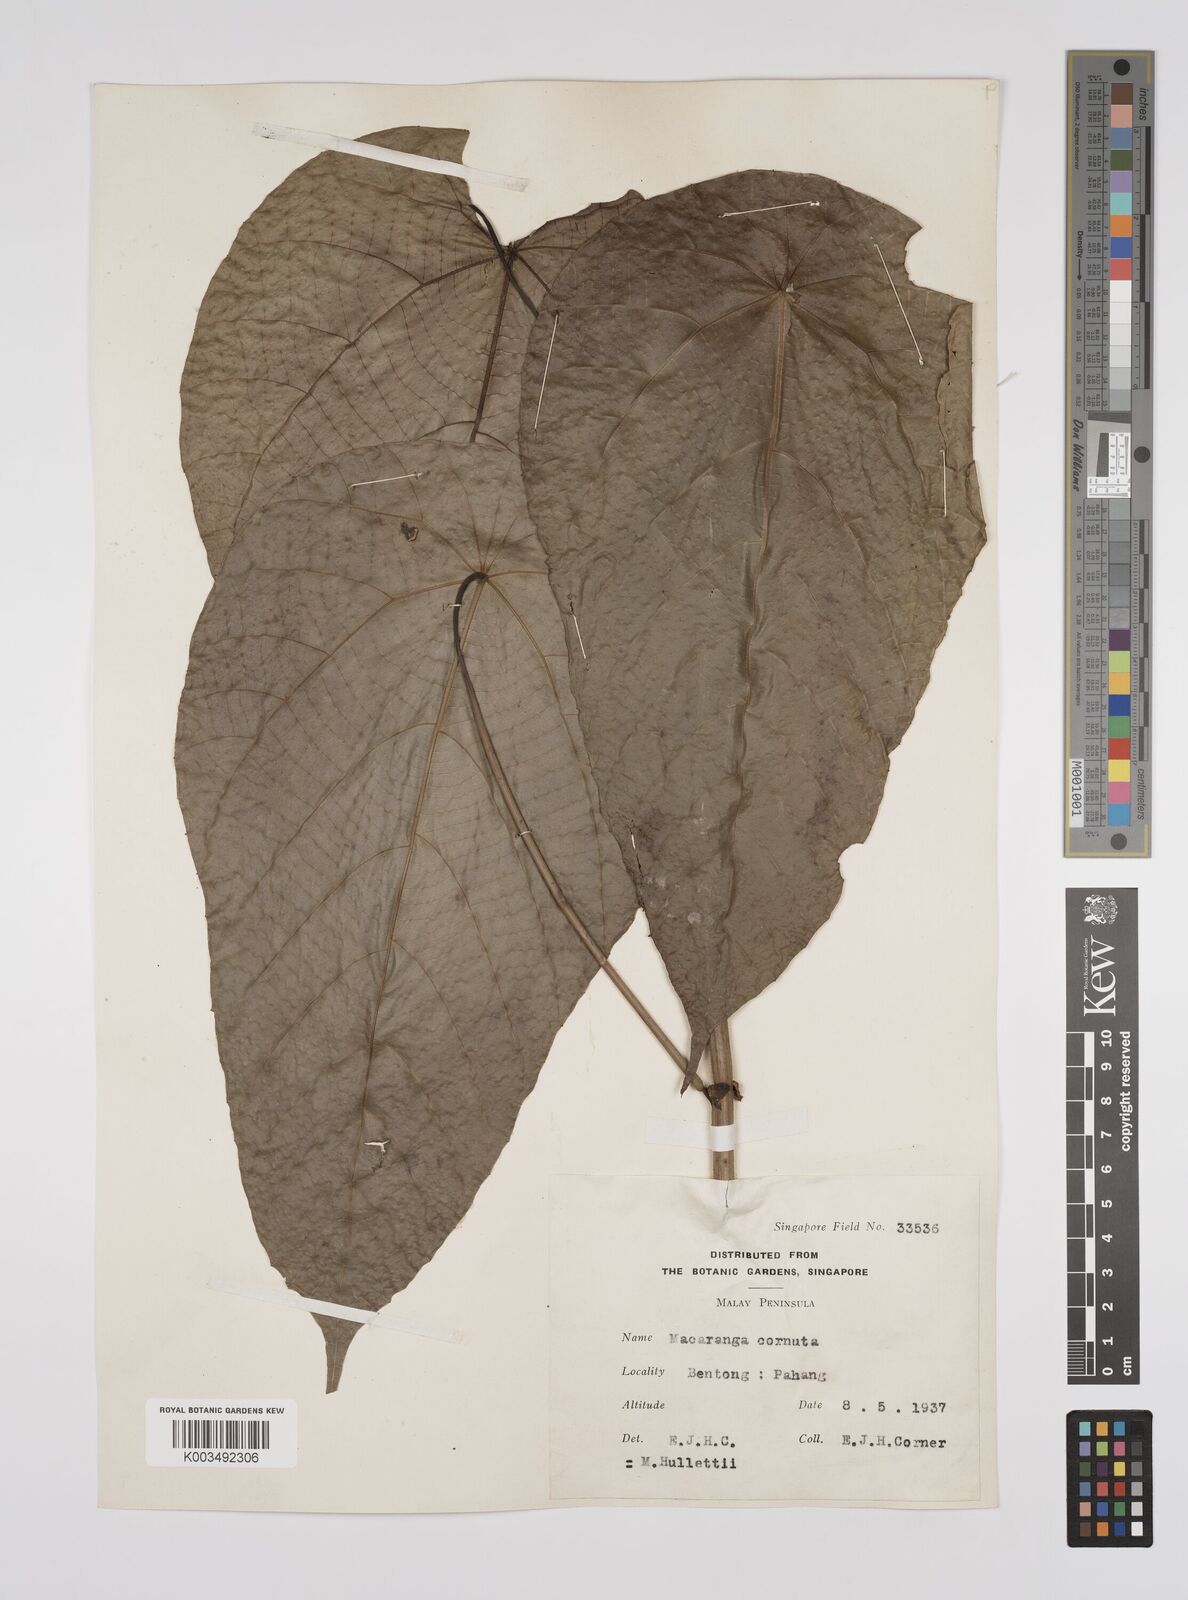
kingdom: Plantae
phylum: Tracheophyta
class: Magnoliopsida
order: Malpighiales
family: Euphorbiaceae
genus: Macaranga
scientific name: Macaranga hullettii
